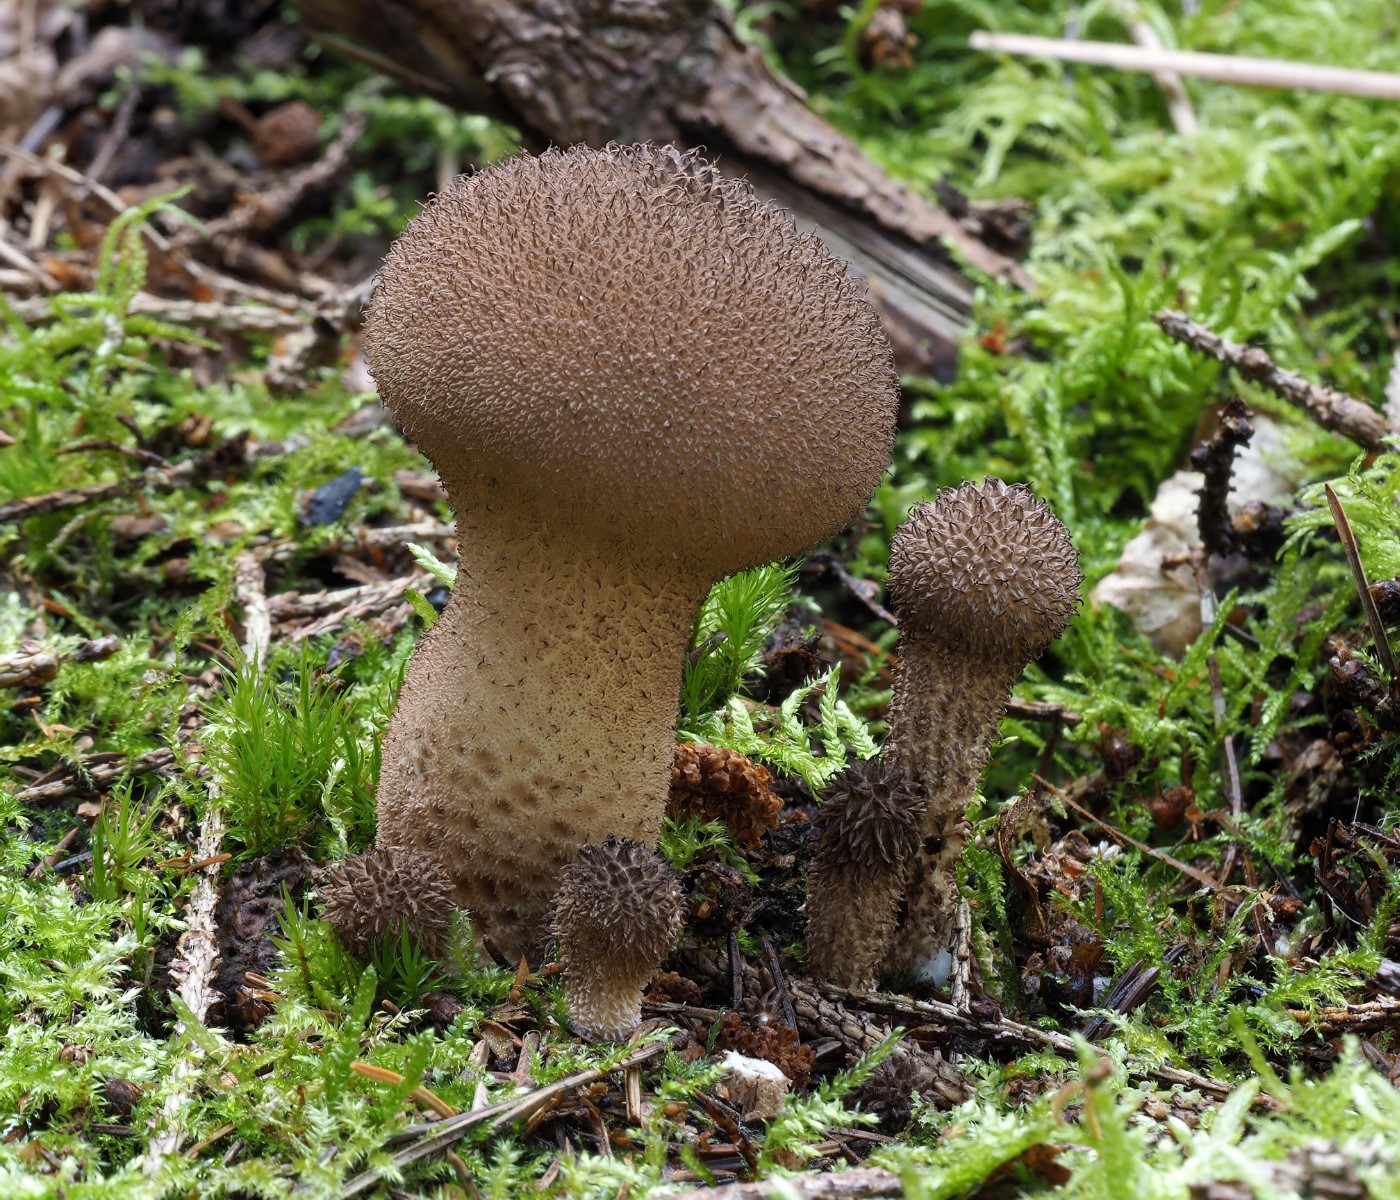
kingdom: Fungi
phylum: Basidiomycota
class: Agaricomycetes
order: Agaricales
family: Lycoperdaceae
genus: Lycoperdon
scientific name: Lycoperdon nigrescens
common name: sortagtig støvbold
